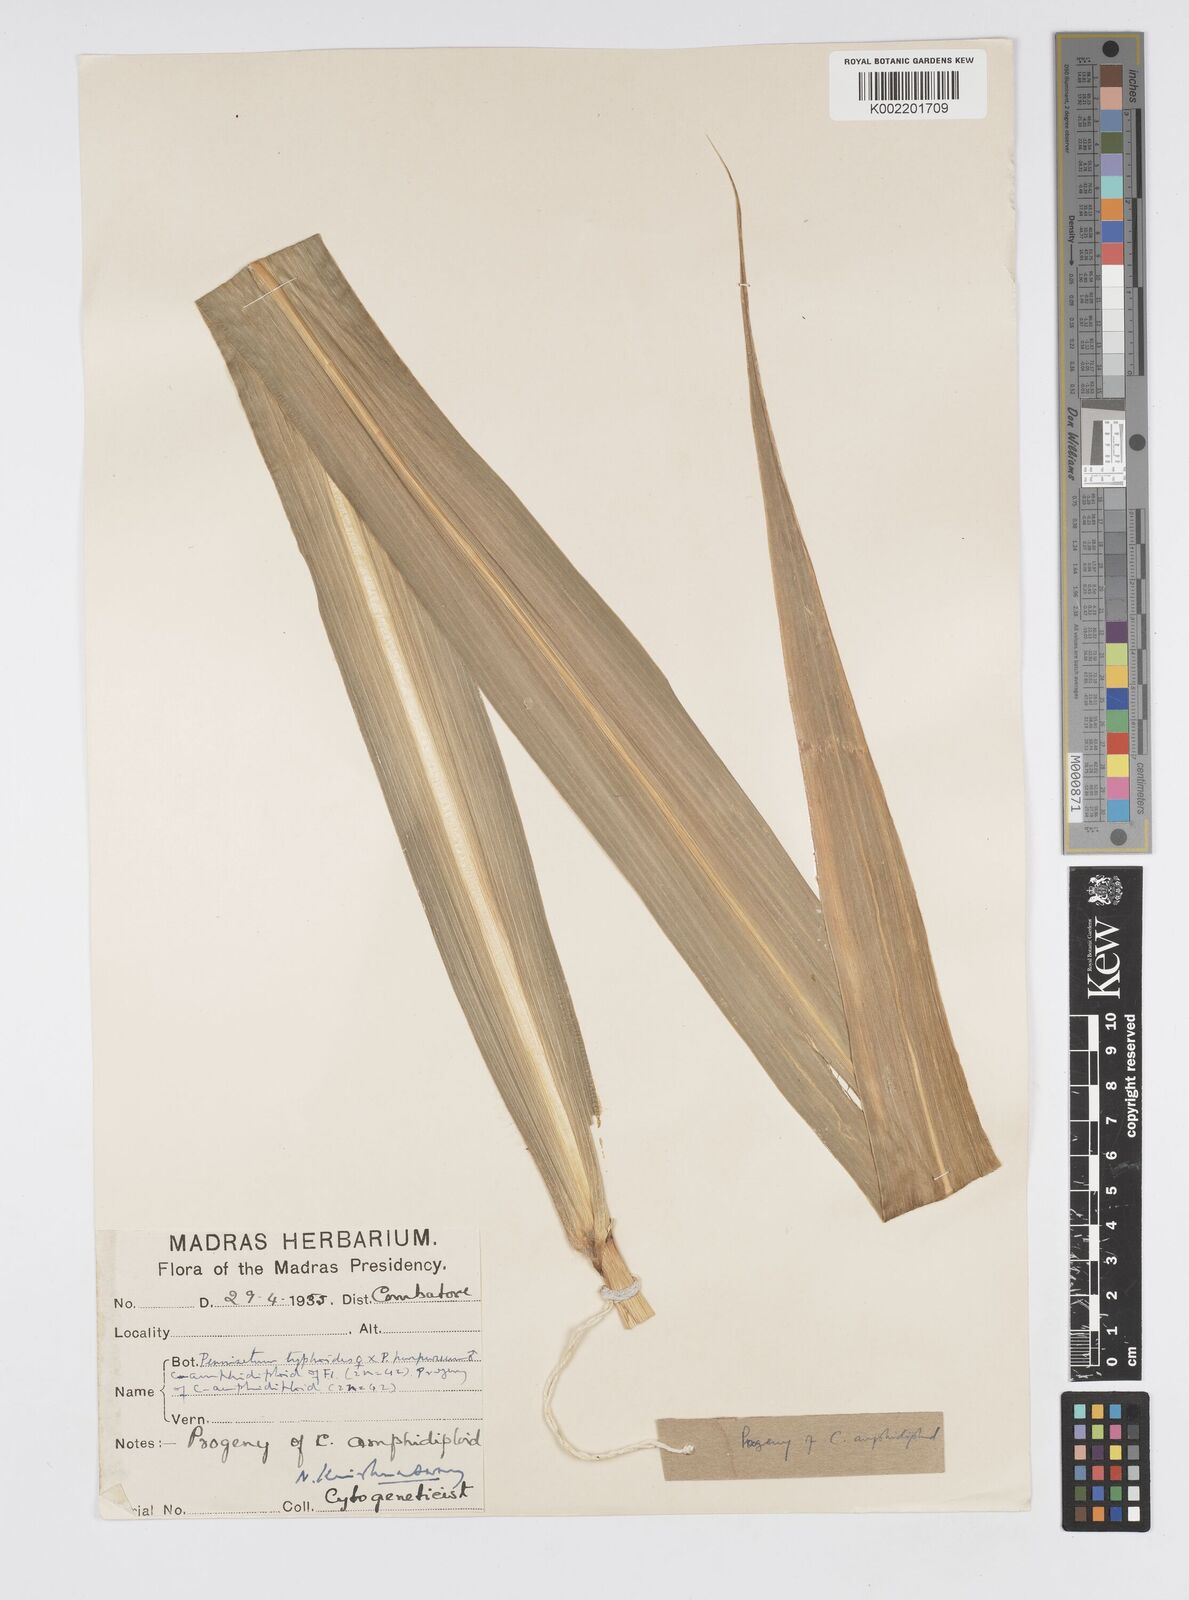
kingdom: Plantae
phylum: Tracheophyta
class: Liliopsida
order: Poales
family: Poaceae
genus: Cenchrus
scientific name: Cenchrus purpureus
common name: Elephant grass
